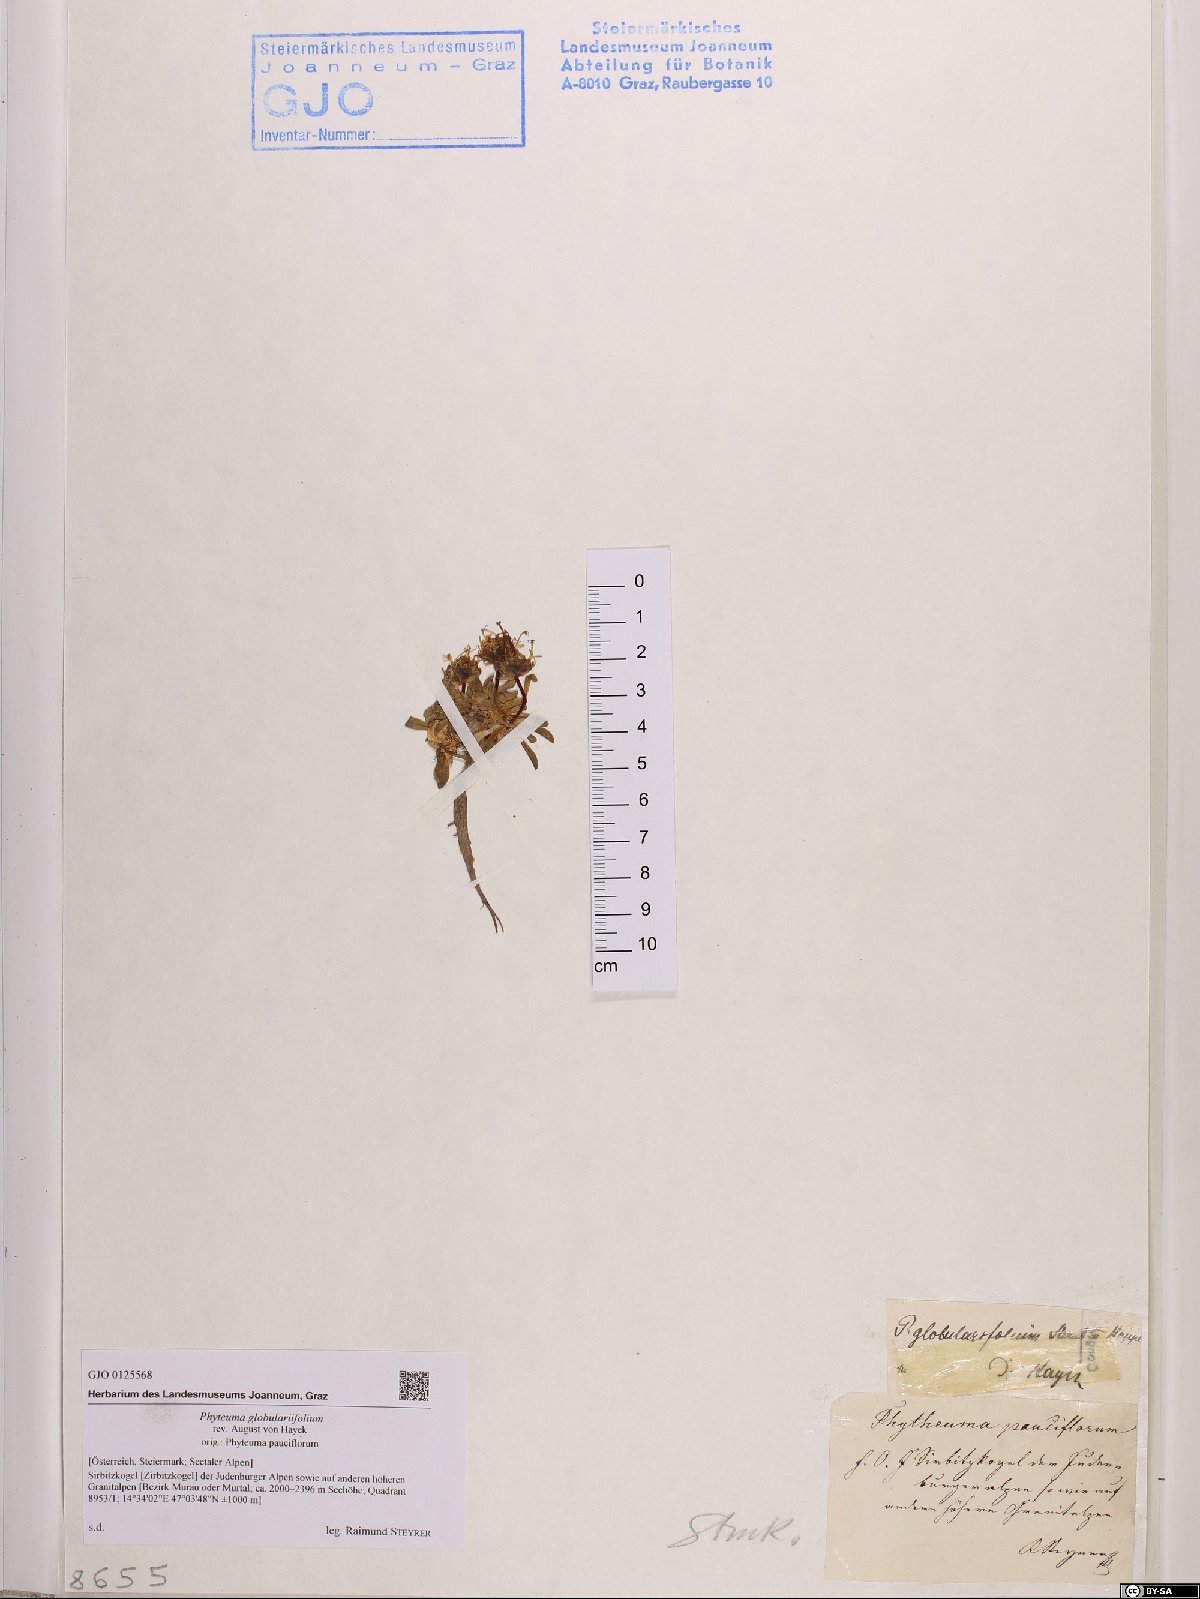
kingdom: Plantae
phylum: Tracheophyta
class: Magnoliopsida
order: Asterales
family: Campanulaceae
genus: Phyteuma
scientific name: Phyteuma globulariifolium
